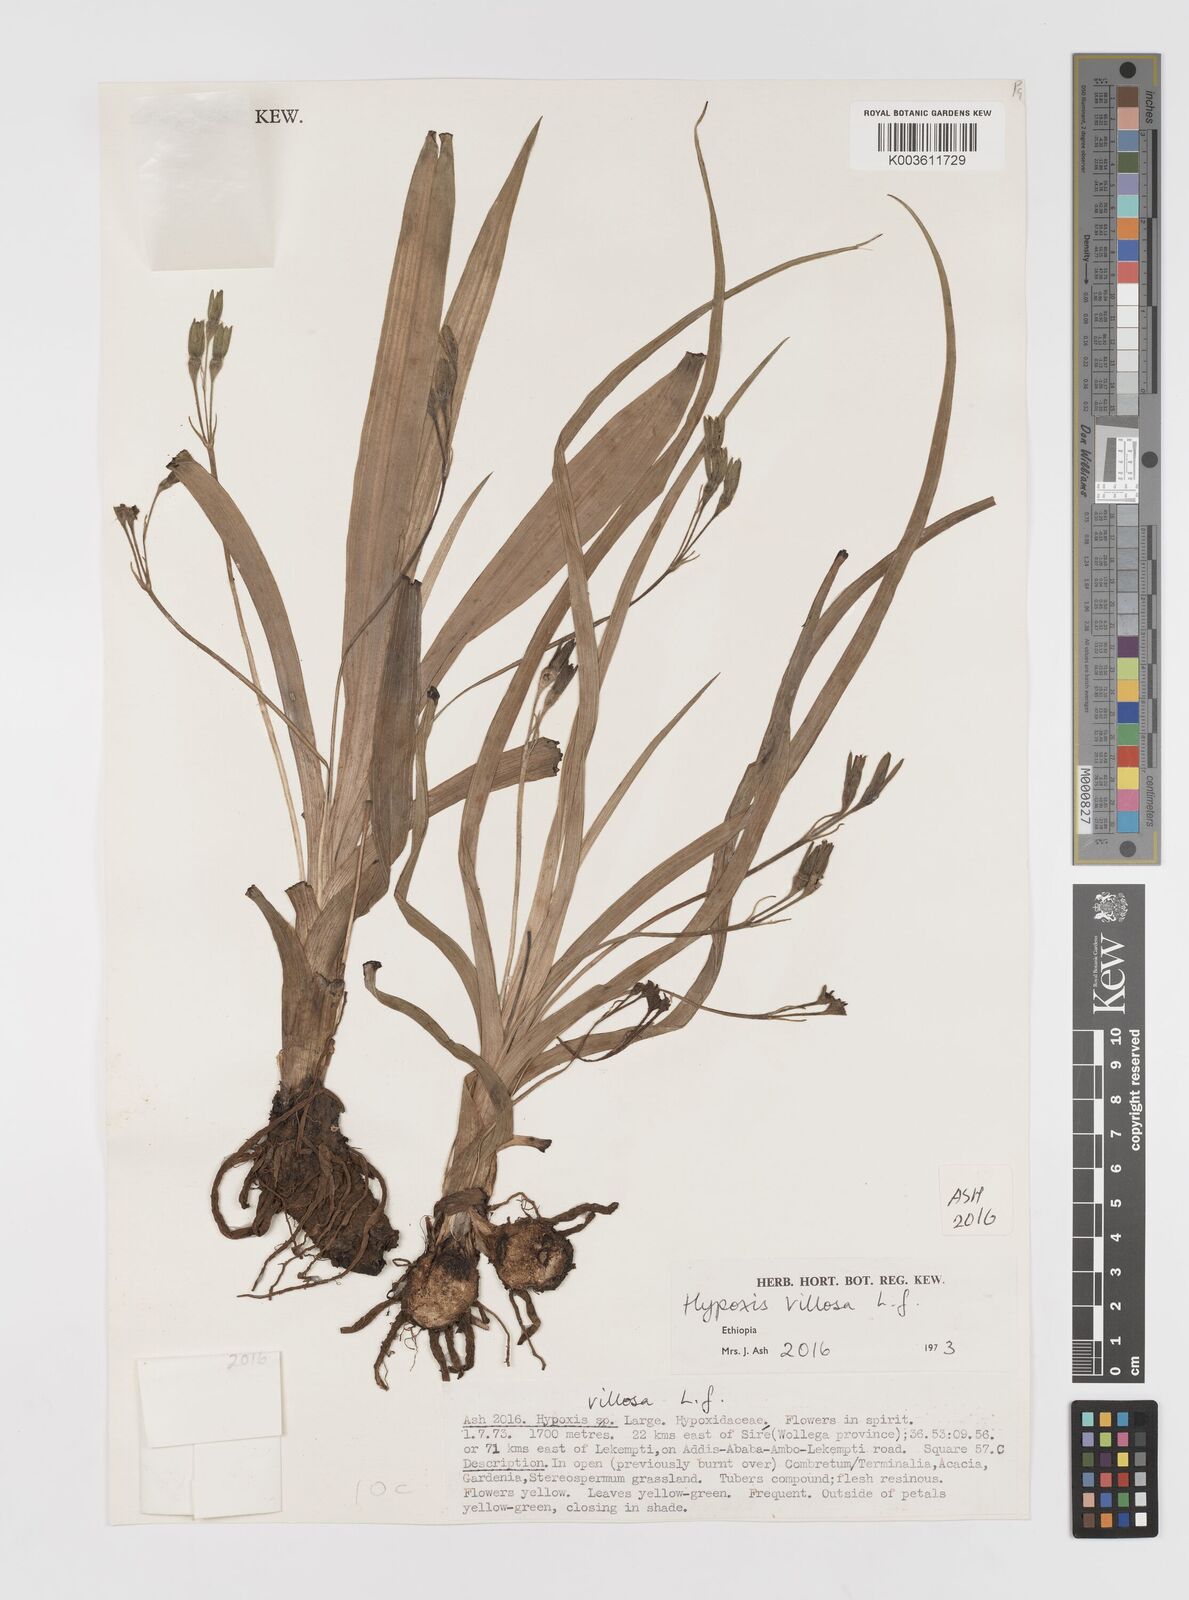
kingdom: Plantae
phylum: Tracheophyta
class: Liliopsida
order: Asparagales
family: Hypoxidaceae
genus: Hypoxis
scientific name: Hypoxis
